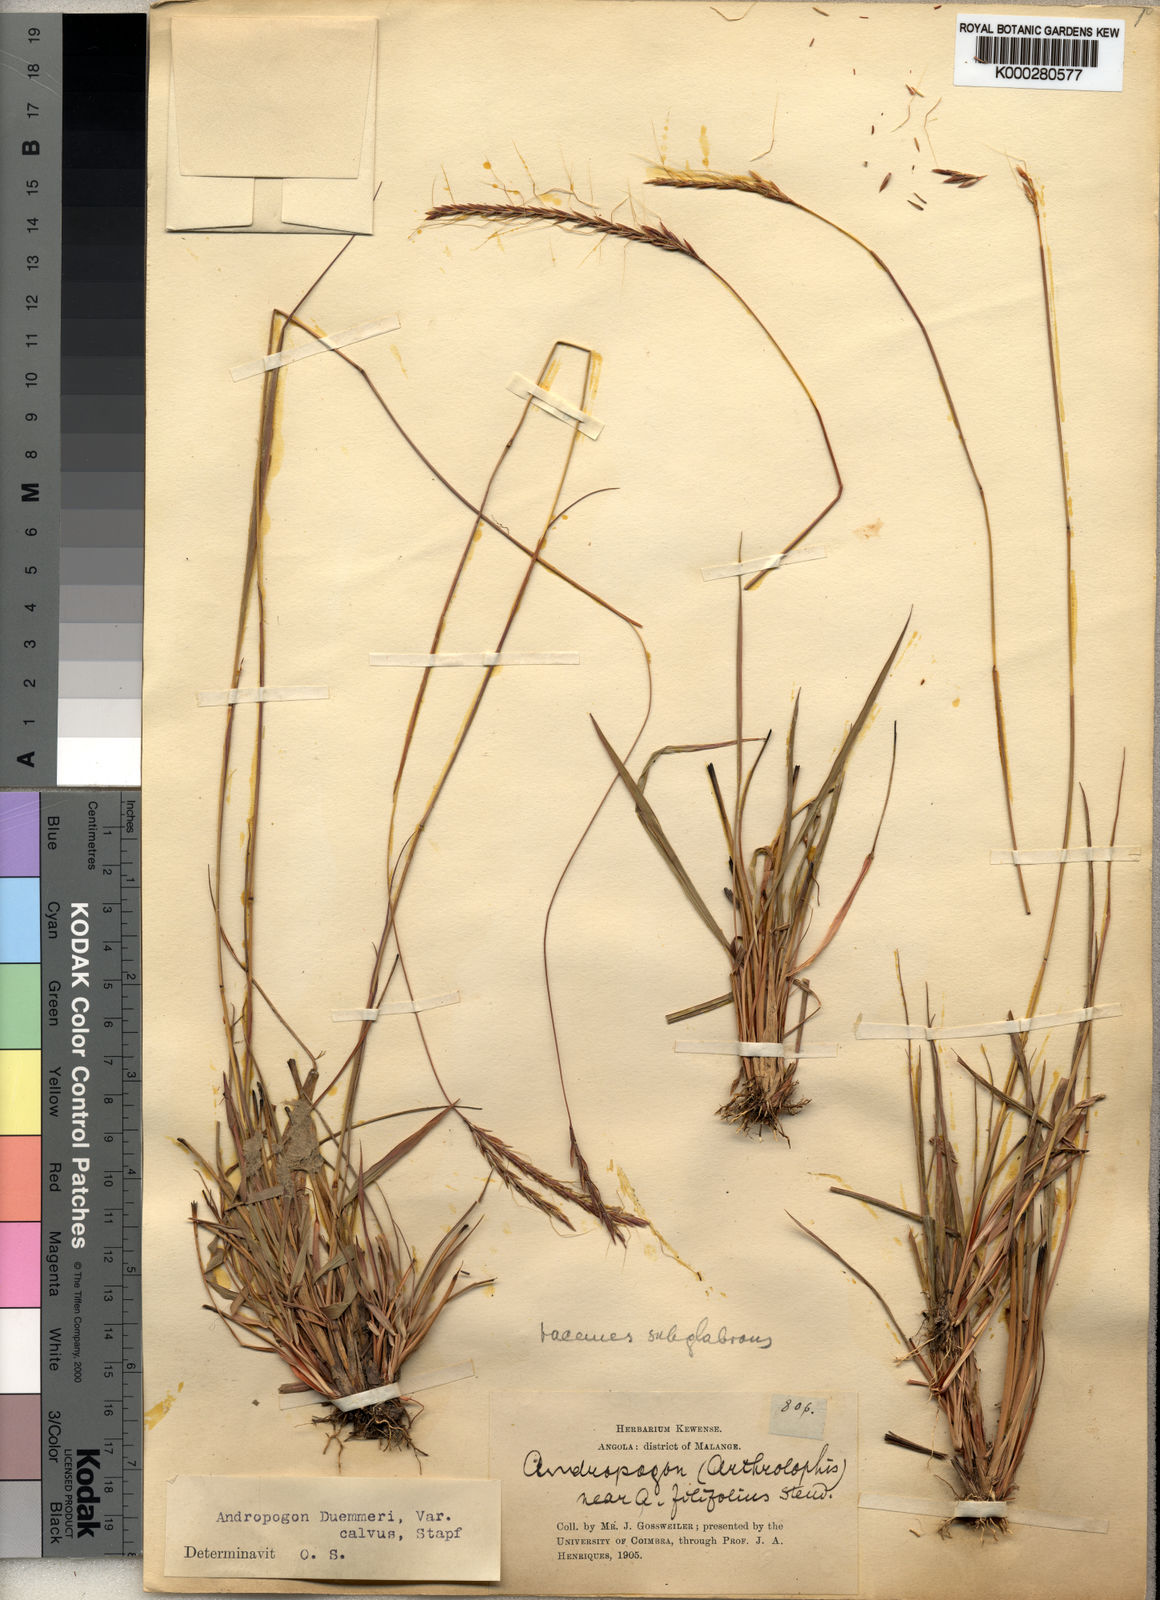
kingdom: Plantae
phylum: Tracheophyta
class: Liliopsida
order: Poales
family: Poaceae
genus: Andropogon
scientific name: Andropogon
